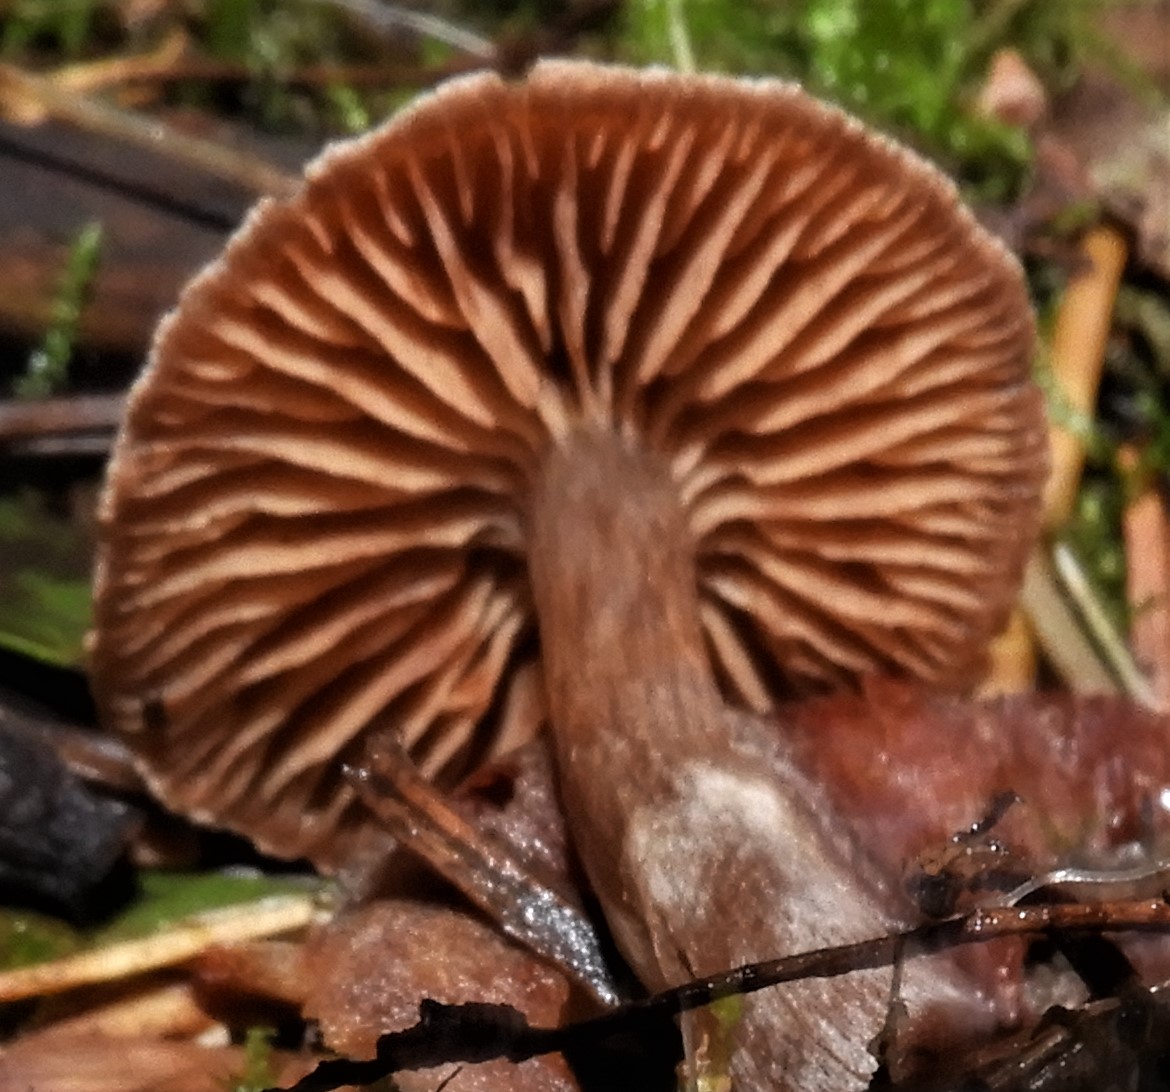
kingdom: Fungi
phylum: Basidiomycota
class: Agaricomycetes
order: Agaricales
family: Cortinariaceae
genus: Cortinarius
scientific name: Cortinarius
